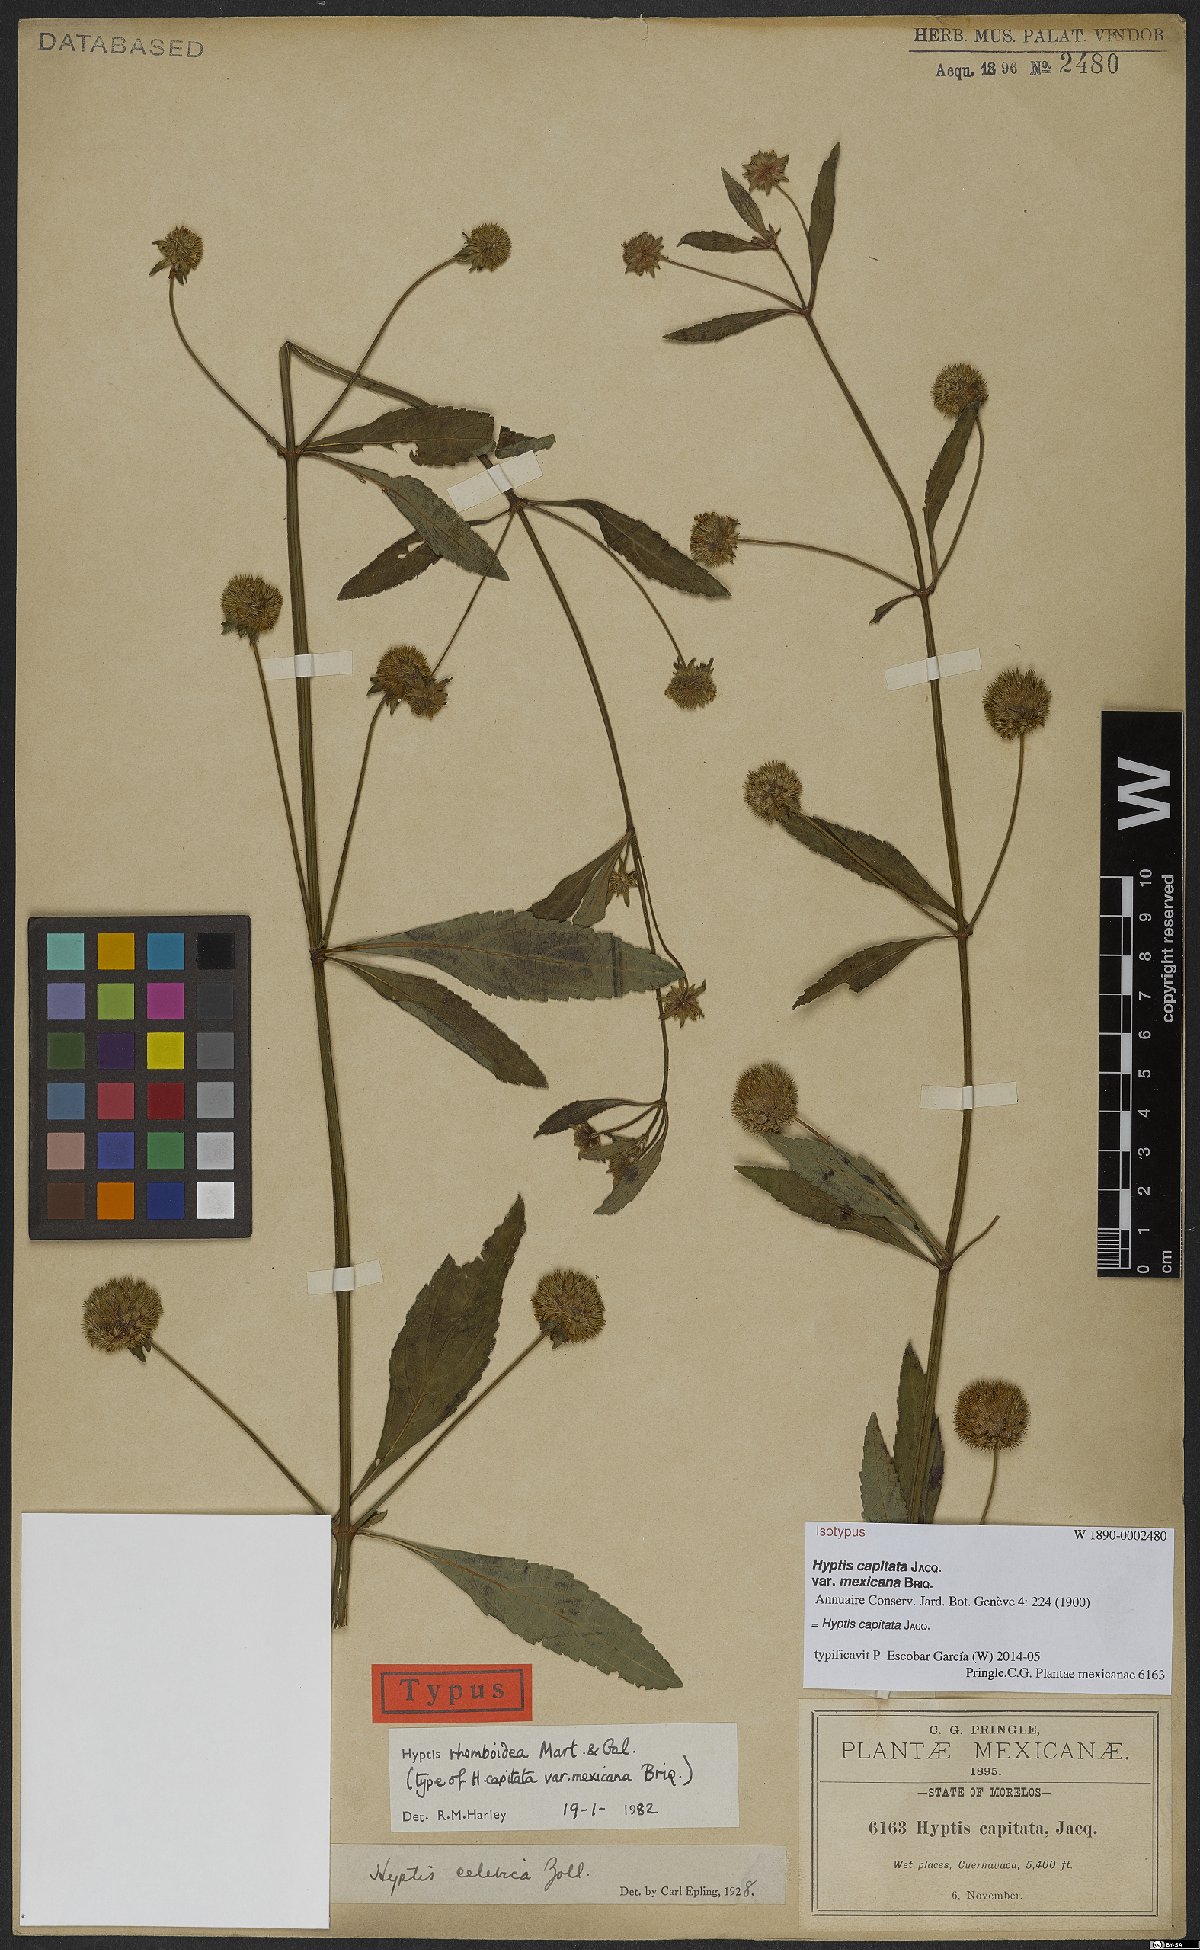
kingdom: Plantae
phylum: Tracheophyta
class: Magnoliopsida
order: Lamiales
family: Lamiaceae
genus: Hyptis
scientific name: Hyptis capitata
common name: False ironwort
